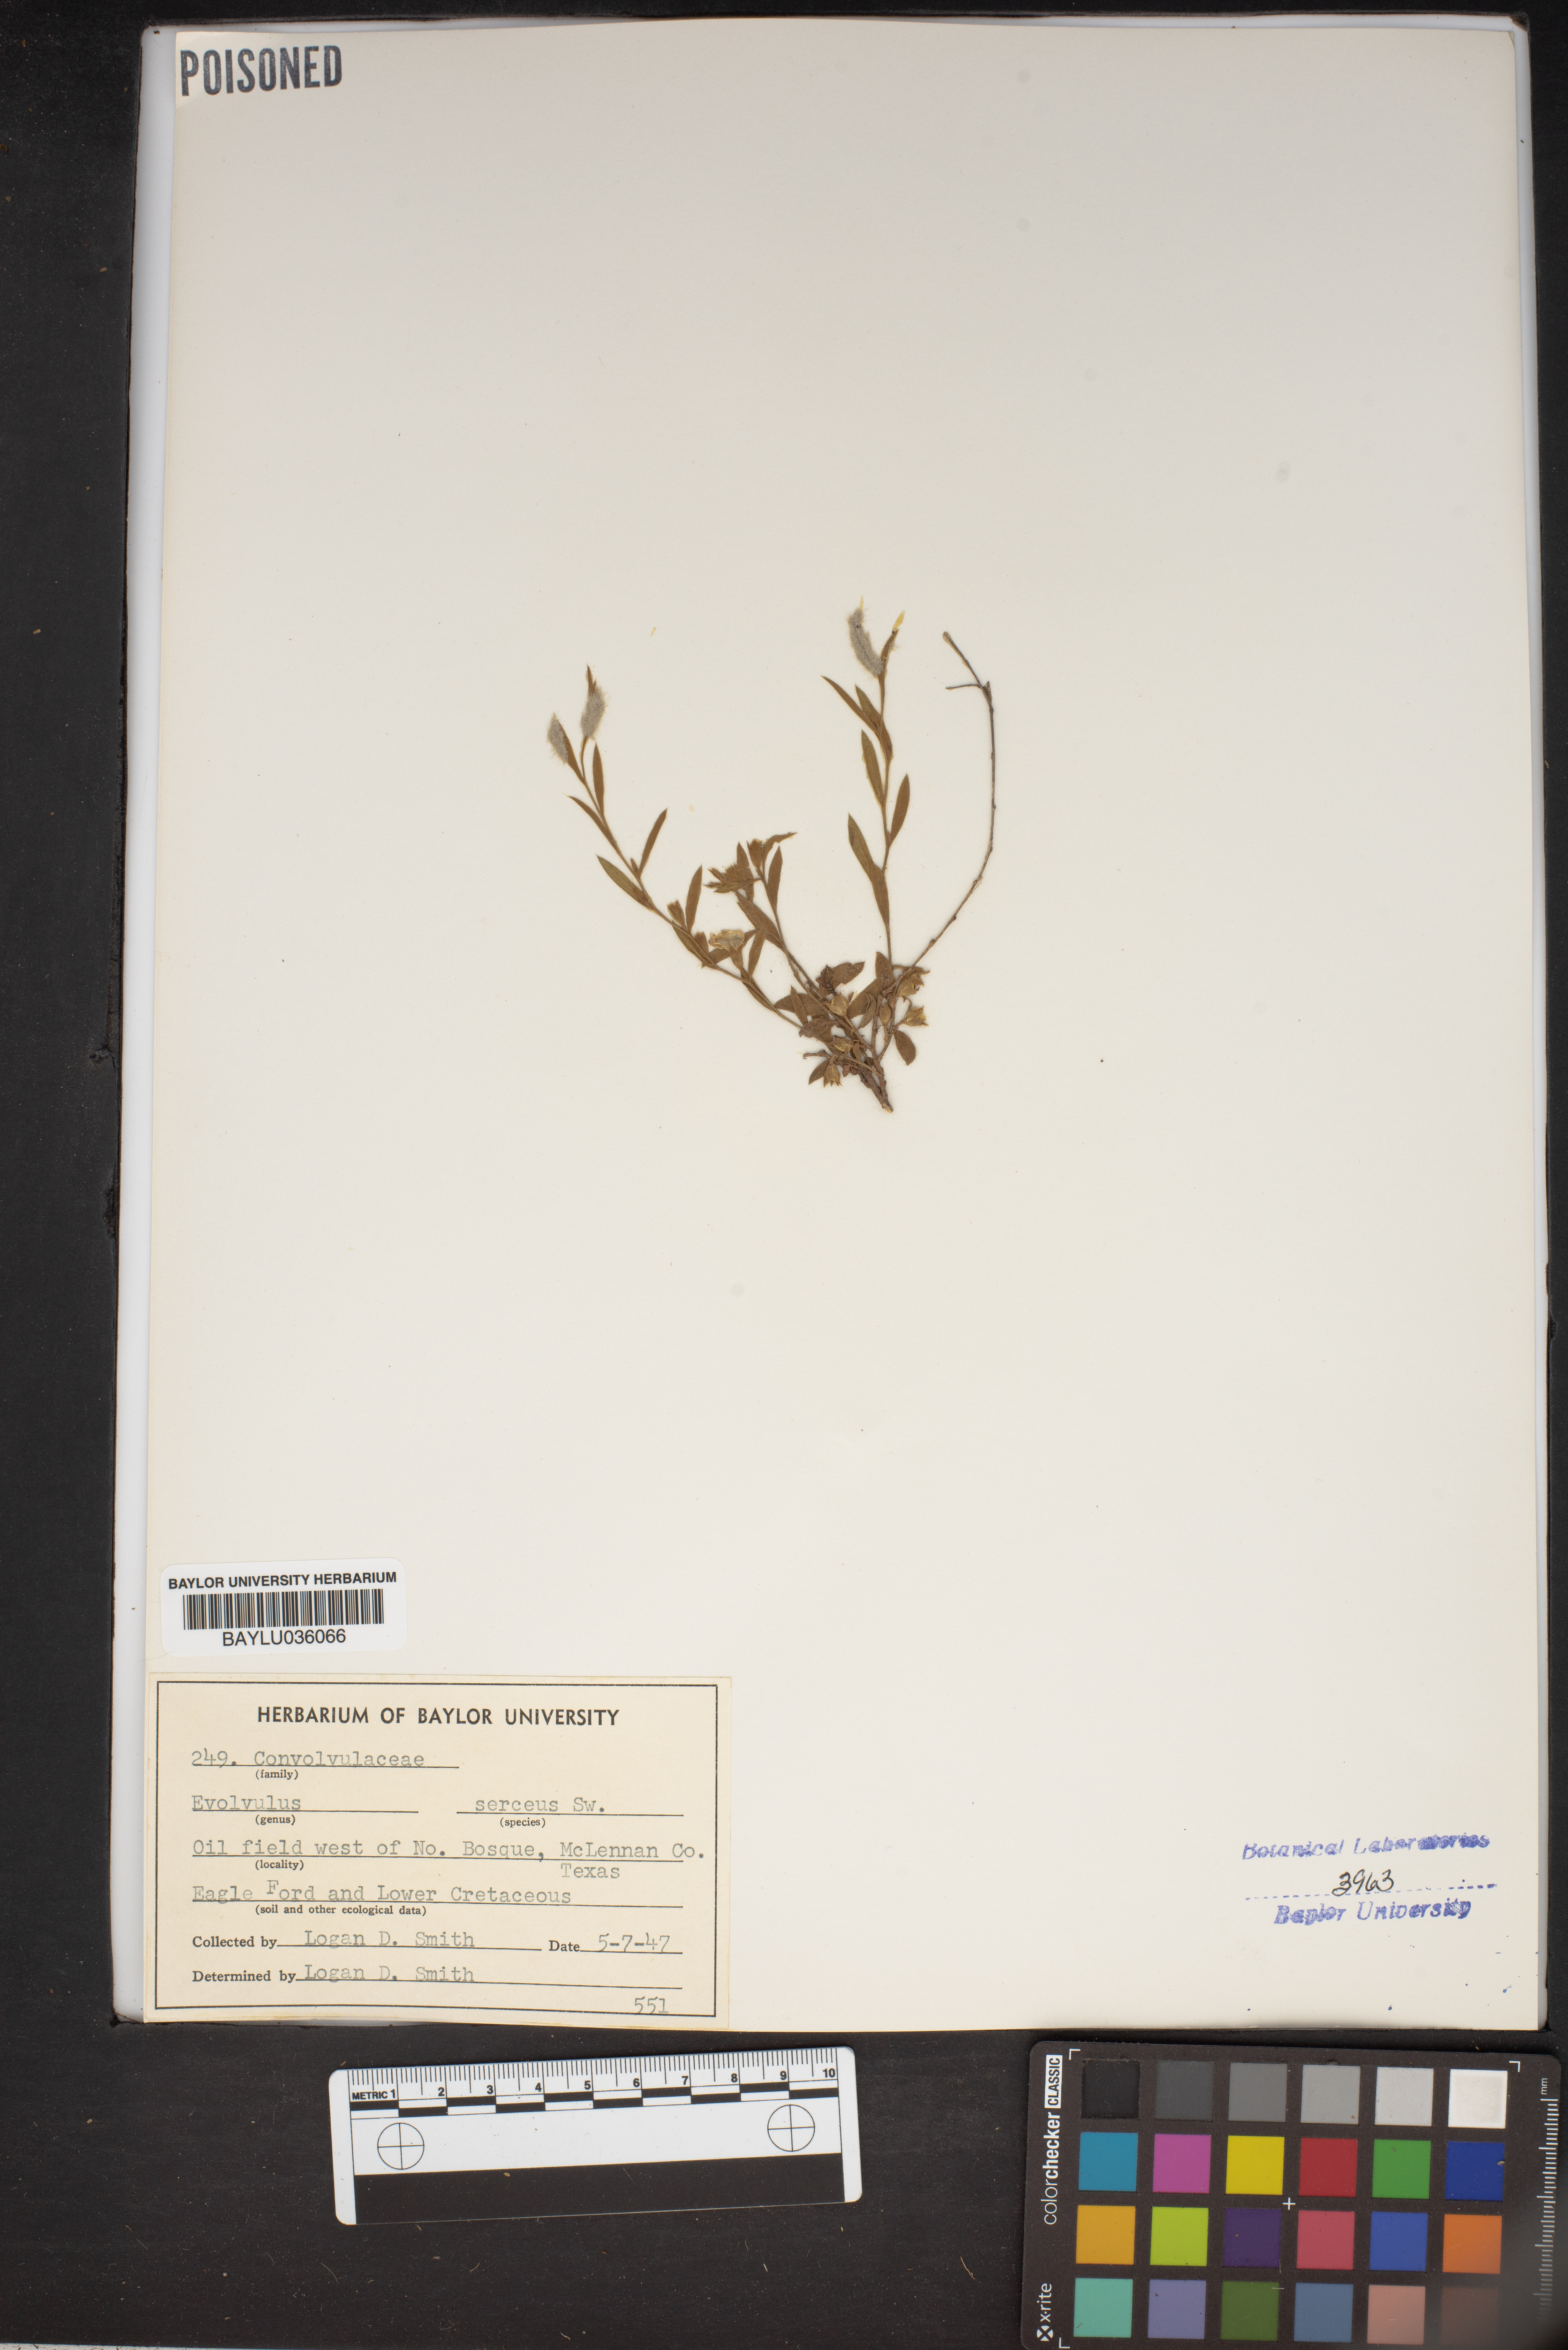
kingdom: Plantae
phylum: Tracheophyta
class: Magnoliopsida
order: Solanales
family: Convolvulaceae
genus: Evolvulus
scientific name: Evolvulus sericeus
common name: Blue dots
